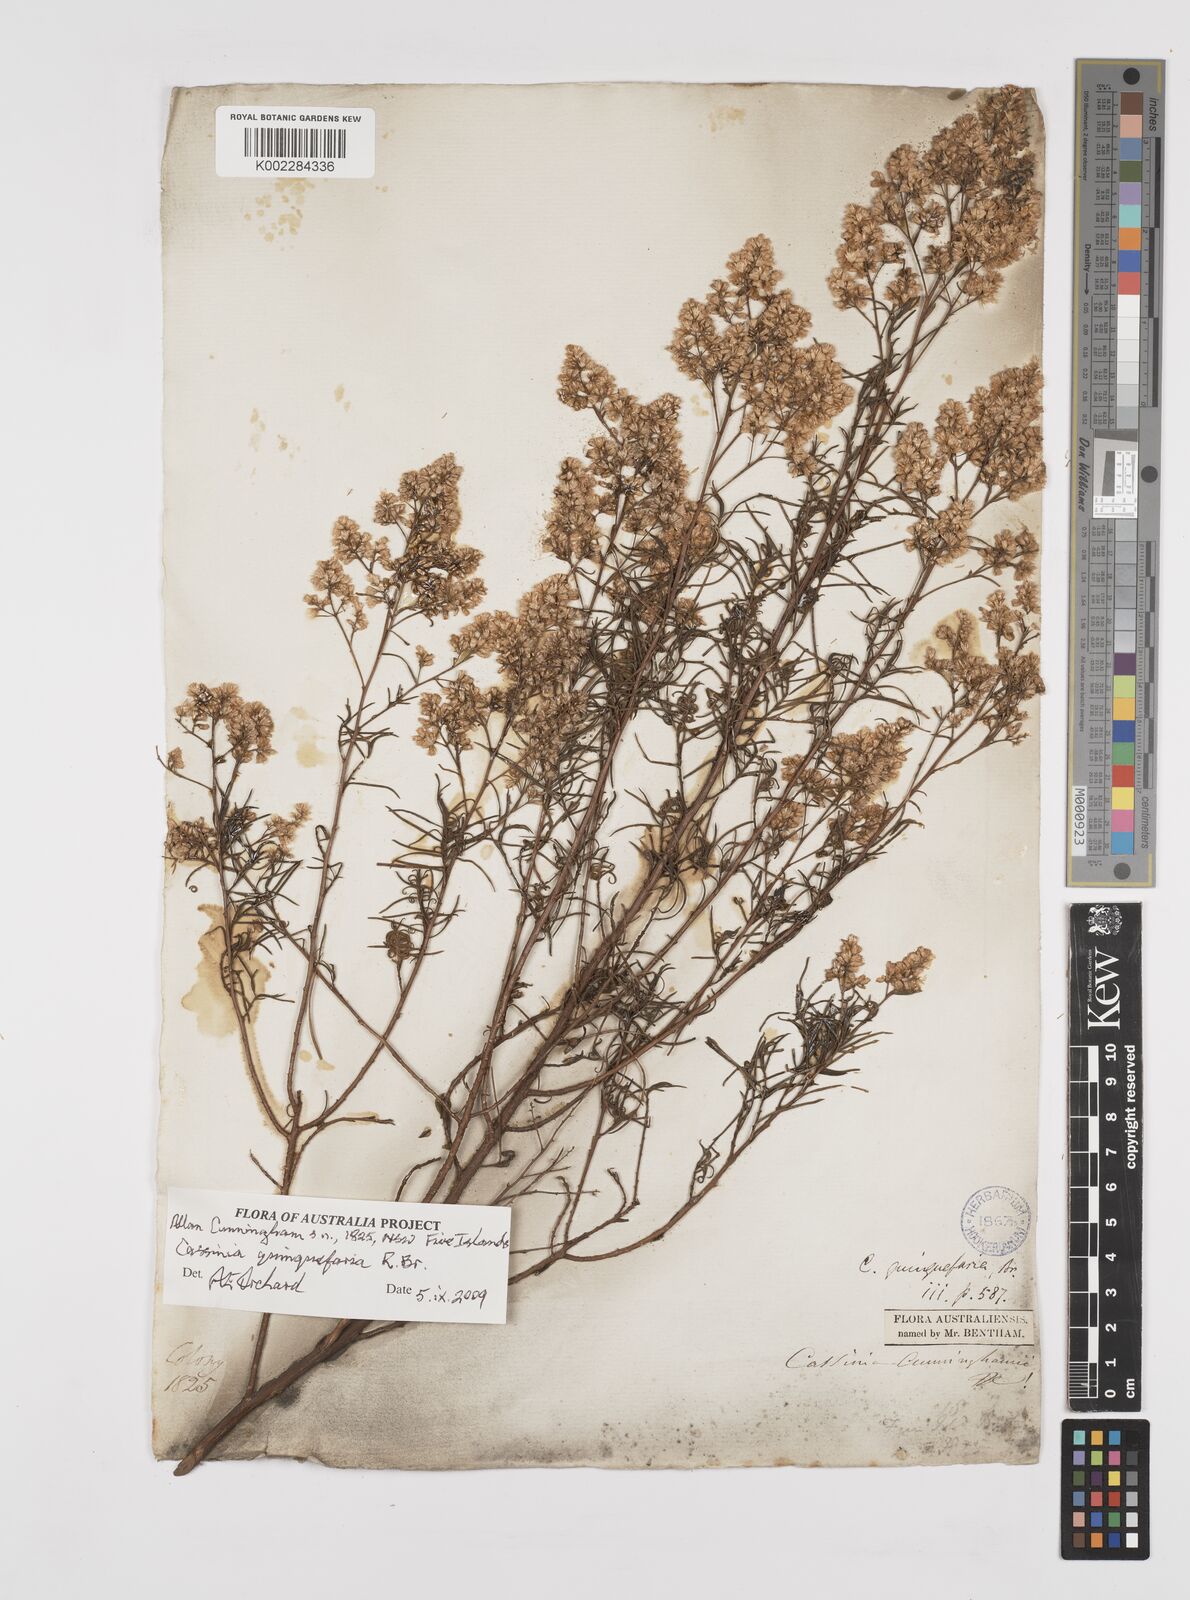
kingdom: Plantae
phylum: Tracheophyta
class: Magnoliopsida
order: Asterales
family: Asteraceae
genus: Cassinia
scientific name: Cassinia quinquefaria
